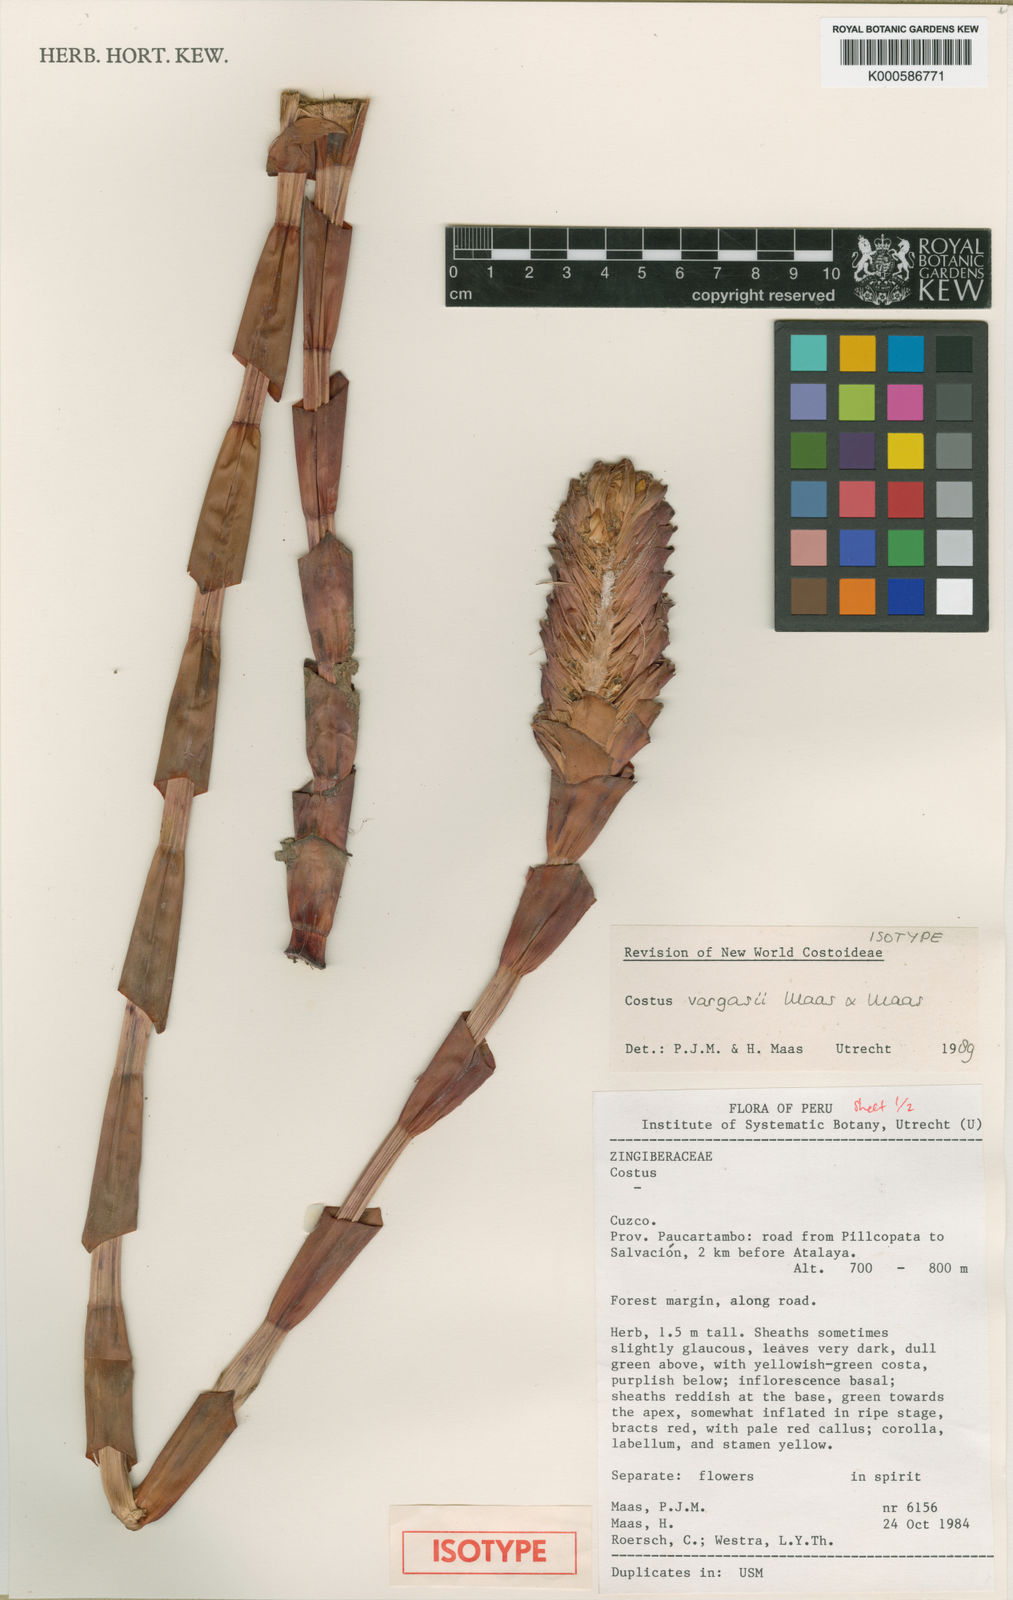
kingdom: Plantae
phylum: Tracheophyta
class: Liliopsida
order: Zingiberales
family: Costaceae
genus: Costus
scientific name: Costus vargasii
